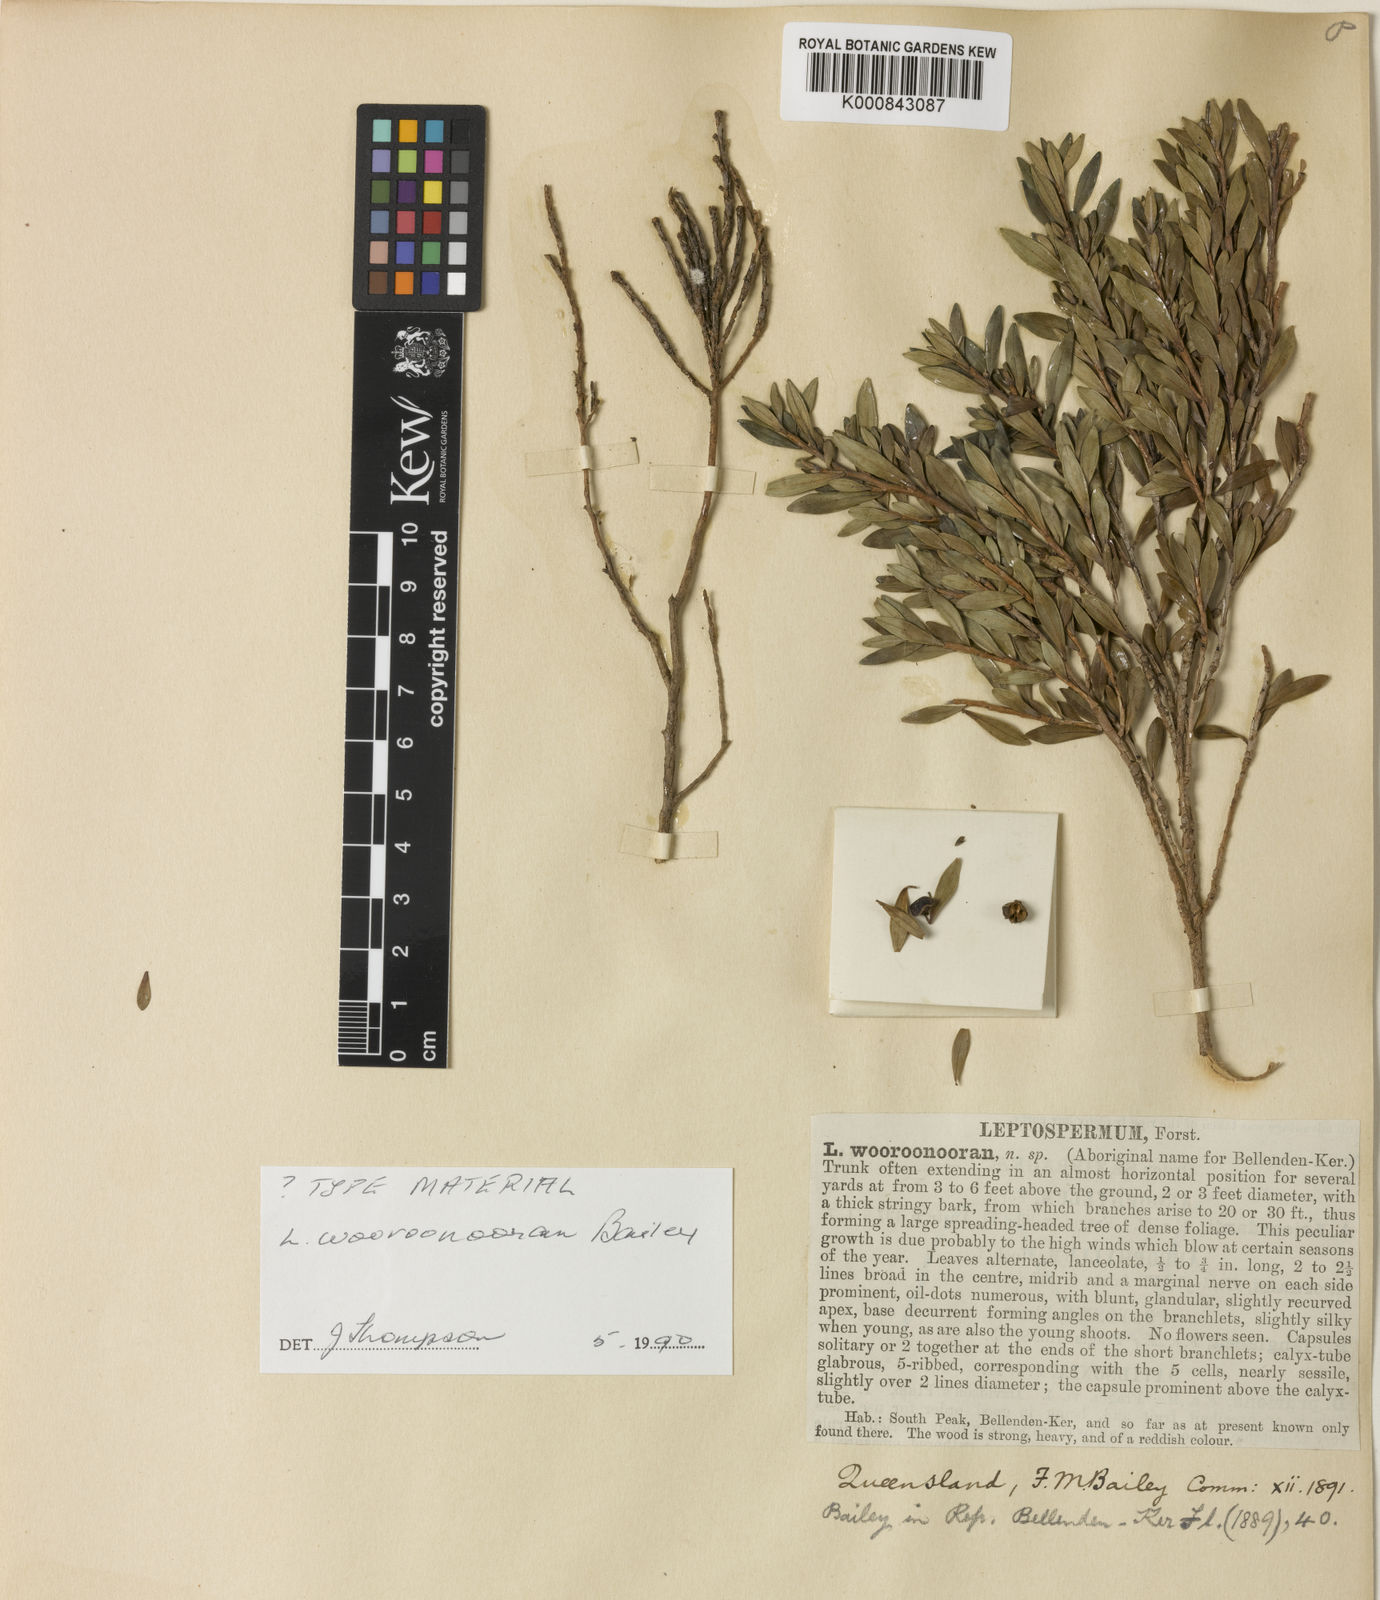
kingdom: Plantae
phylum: Tracheophyta
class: Magnoliopsida
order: Myrtales
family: Myrtaceae
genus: Leptospermum
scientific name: Leptospermum wooroonooran
